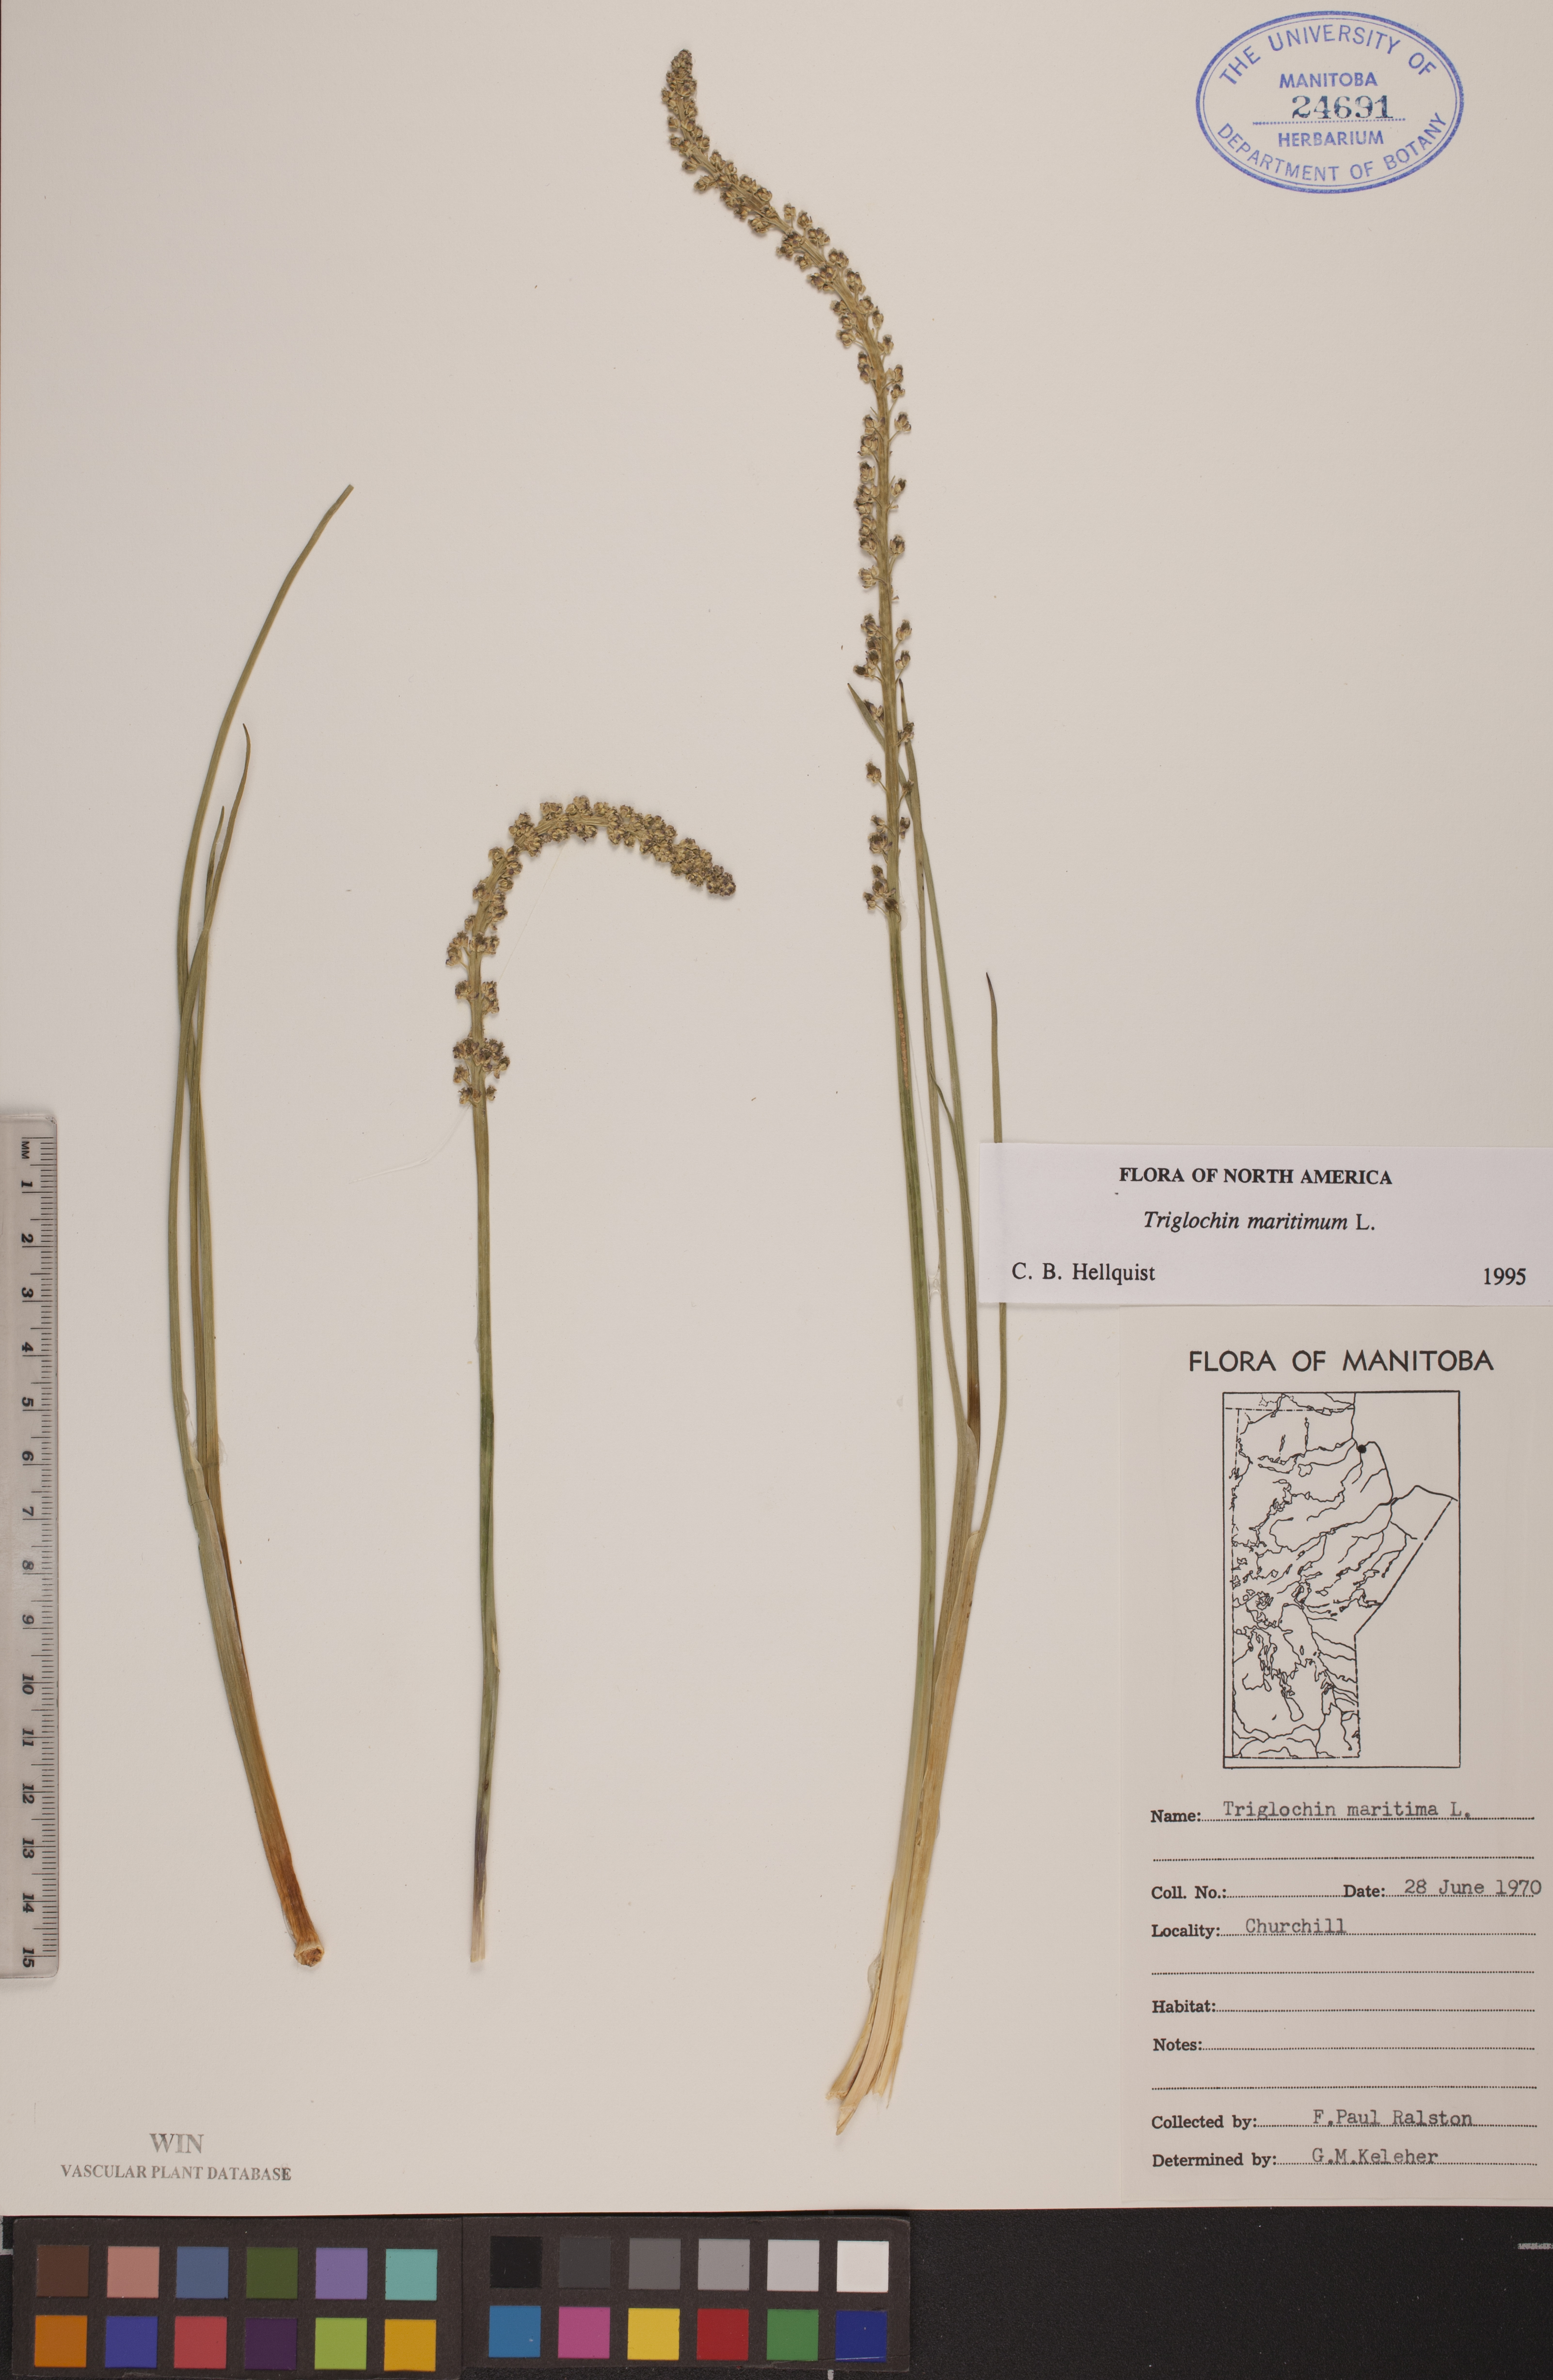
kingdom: Plantae
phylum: Tracheophyta
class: Liliopsida
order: Alismatales
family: Juncaginaceae
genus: Triglochin
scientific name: Triglochin maritima
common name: Sea arrowgrass
